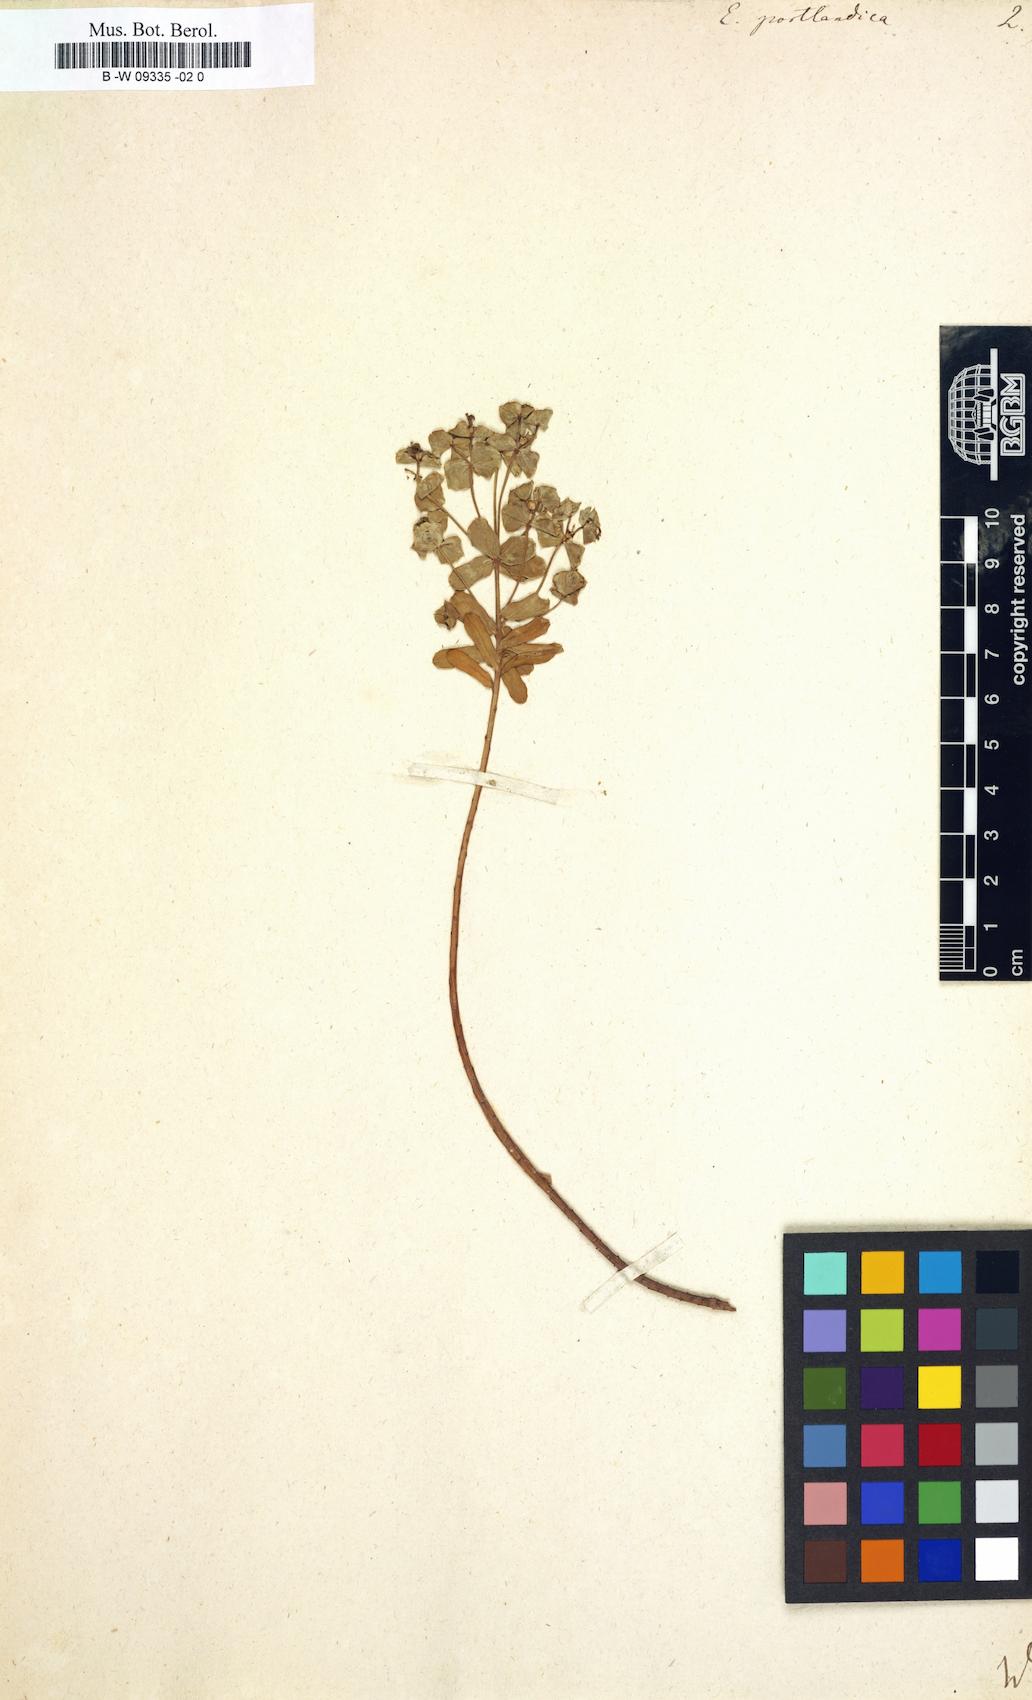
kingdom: Plantae
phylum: Tracheophyta
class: Magnoliopsida
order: Malpighiales
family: Euphorbiaceae
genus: Euphorbia
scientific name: Euphorbia portlandica
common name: Portland spurge
